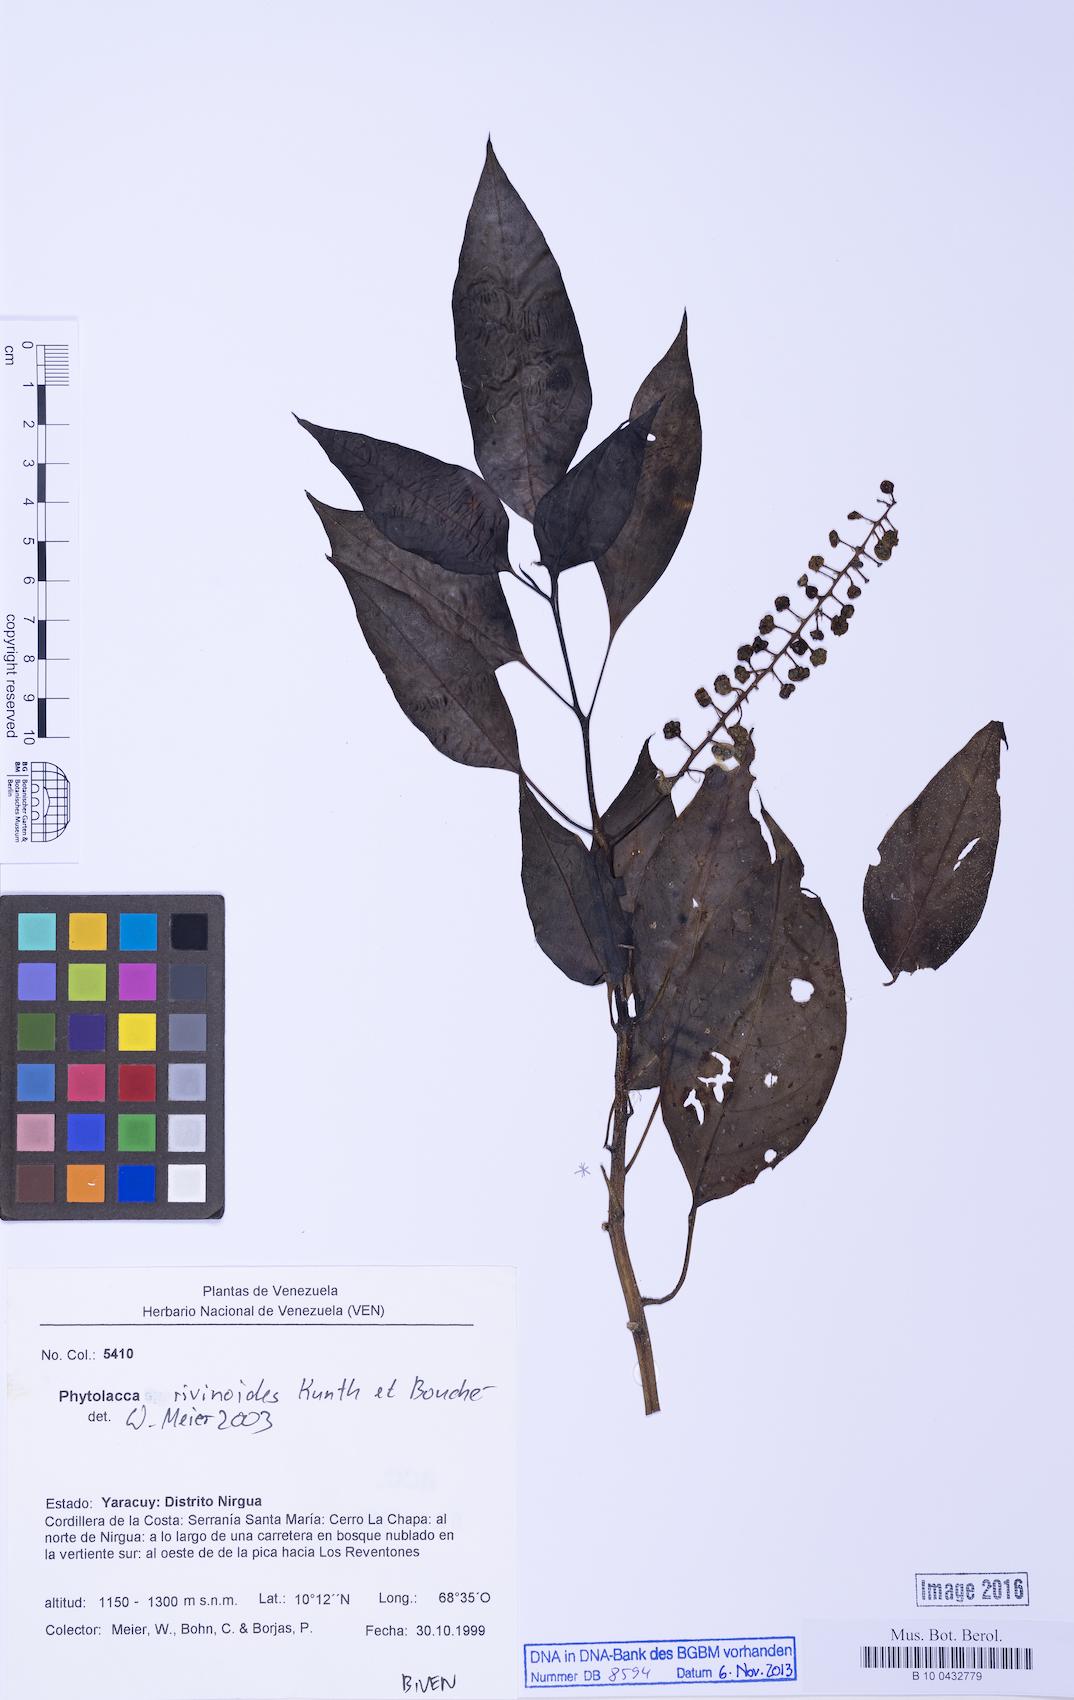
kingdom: Plantae
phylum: Tracheophyta
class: Magnoliopsida
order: Caryophyllales
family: Phytolaccaceae
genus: Phytolacca
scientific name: Phytolacca rivinoides
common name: Venezuelan pokeweed
